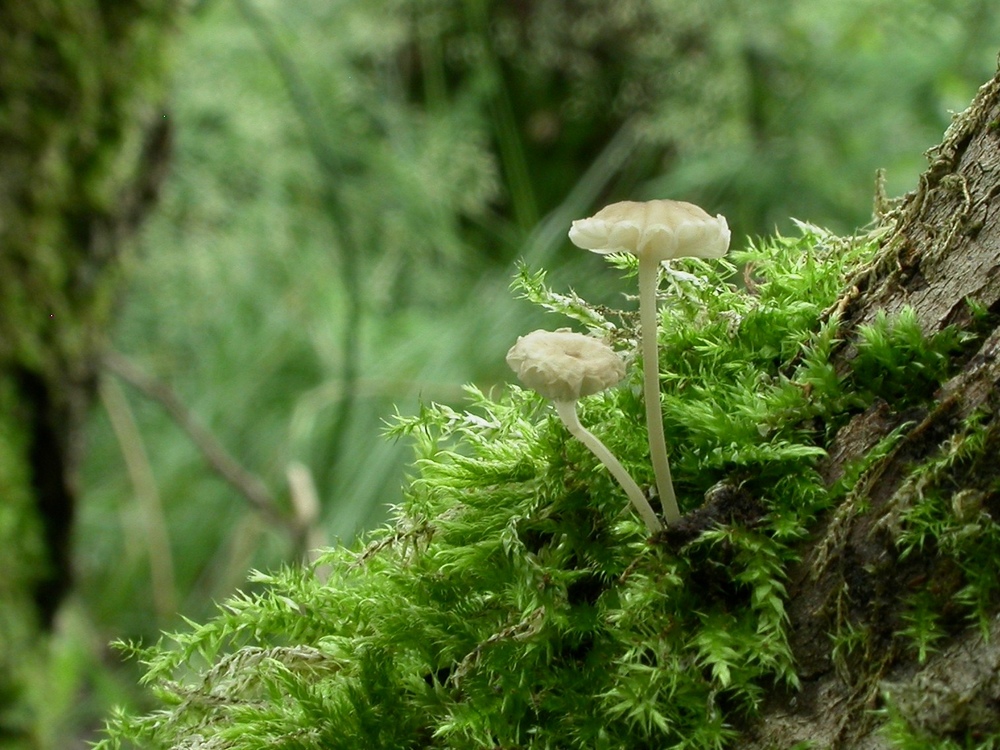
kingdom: Fungi
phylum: Basidiomycota
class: Agaricomycetes
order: Agaricales
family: Porotheleaceae
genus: Phloeomana
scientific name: Phloeomana speirea
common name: kvist-huesvamp
